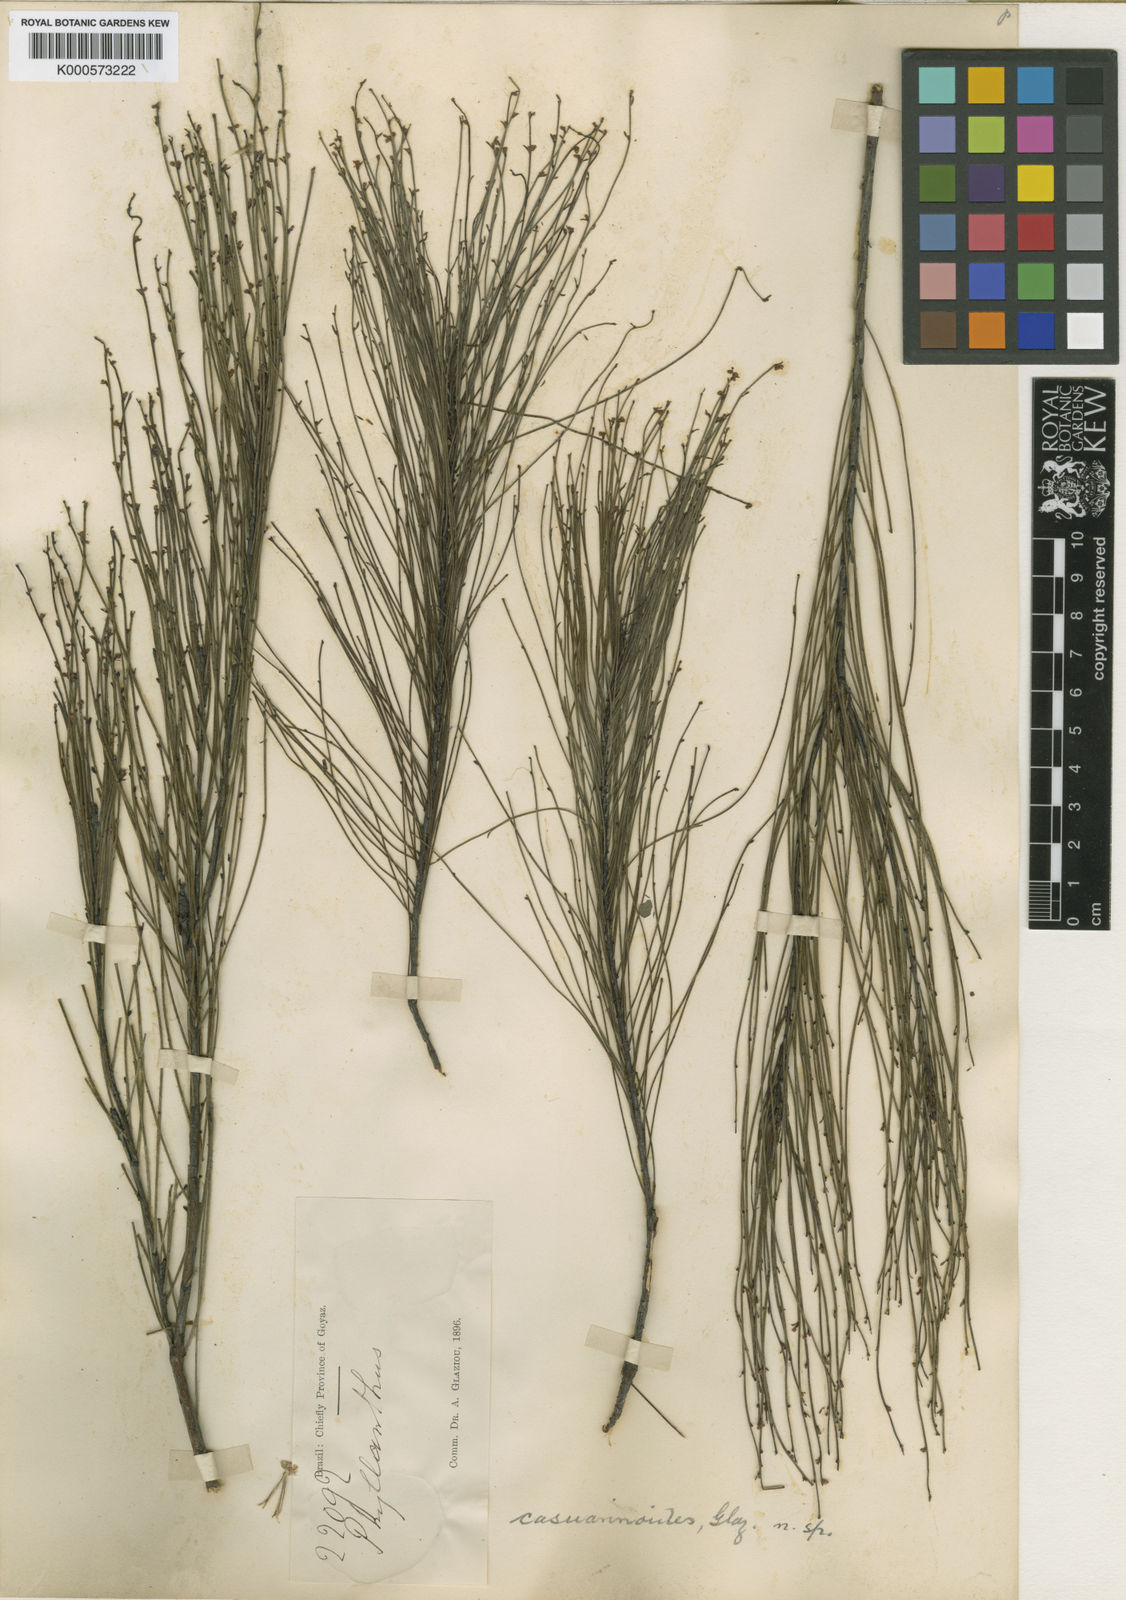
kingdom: Plantae
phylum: Tracheophyta
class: Magnoliopsida
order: Malpighiales
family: Phyllanthaceae
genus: Phyllanthus
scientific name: Phyllanthus
